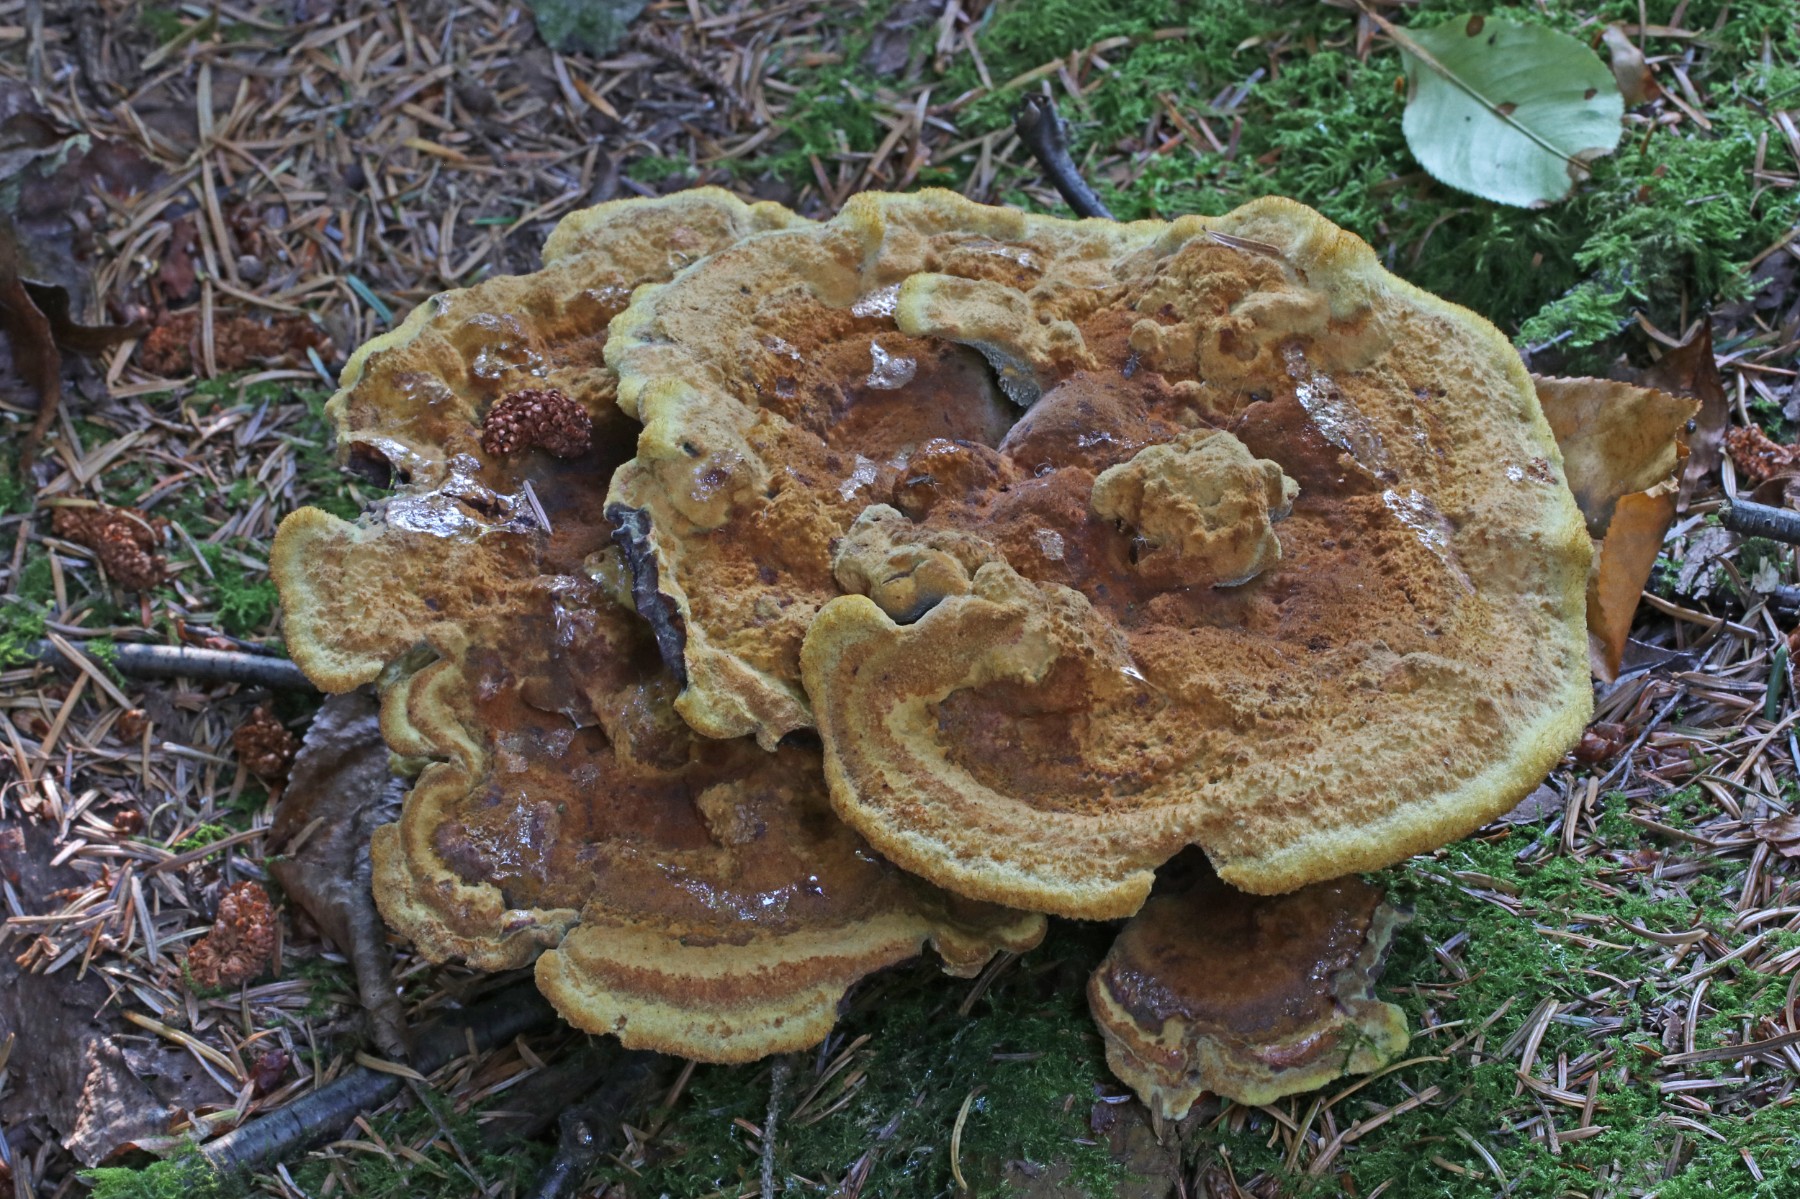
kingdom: Fungi
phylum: Basidiomycota
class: Agaricomycetes
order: Polyporales
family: Laetiporaceae
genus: Phaeolus
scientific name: Phaeolus schweinitzii
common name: brunporesvamp
